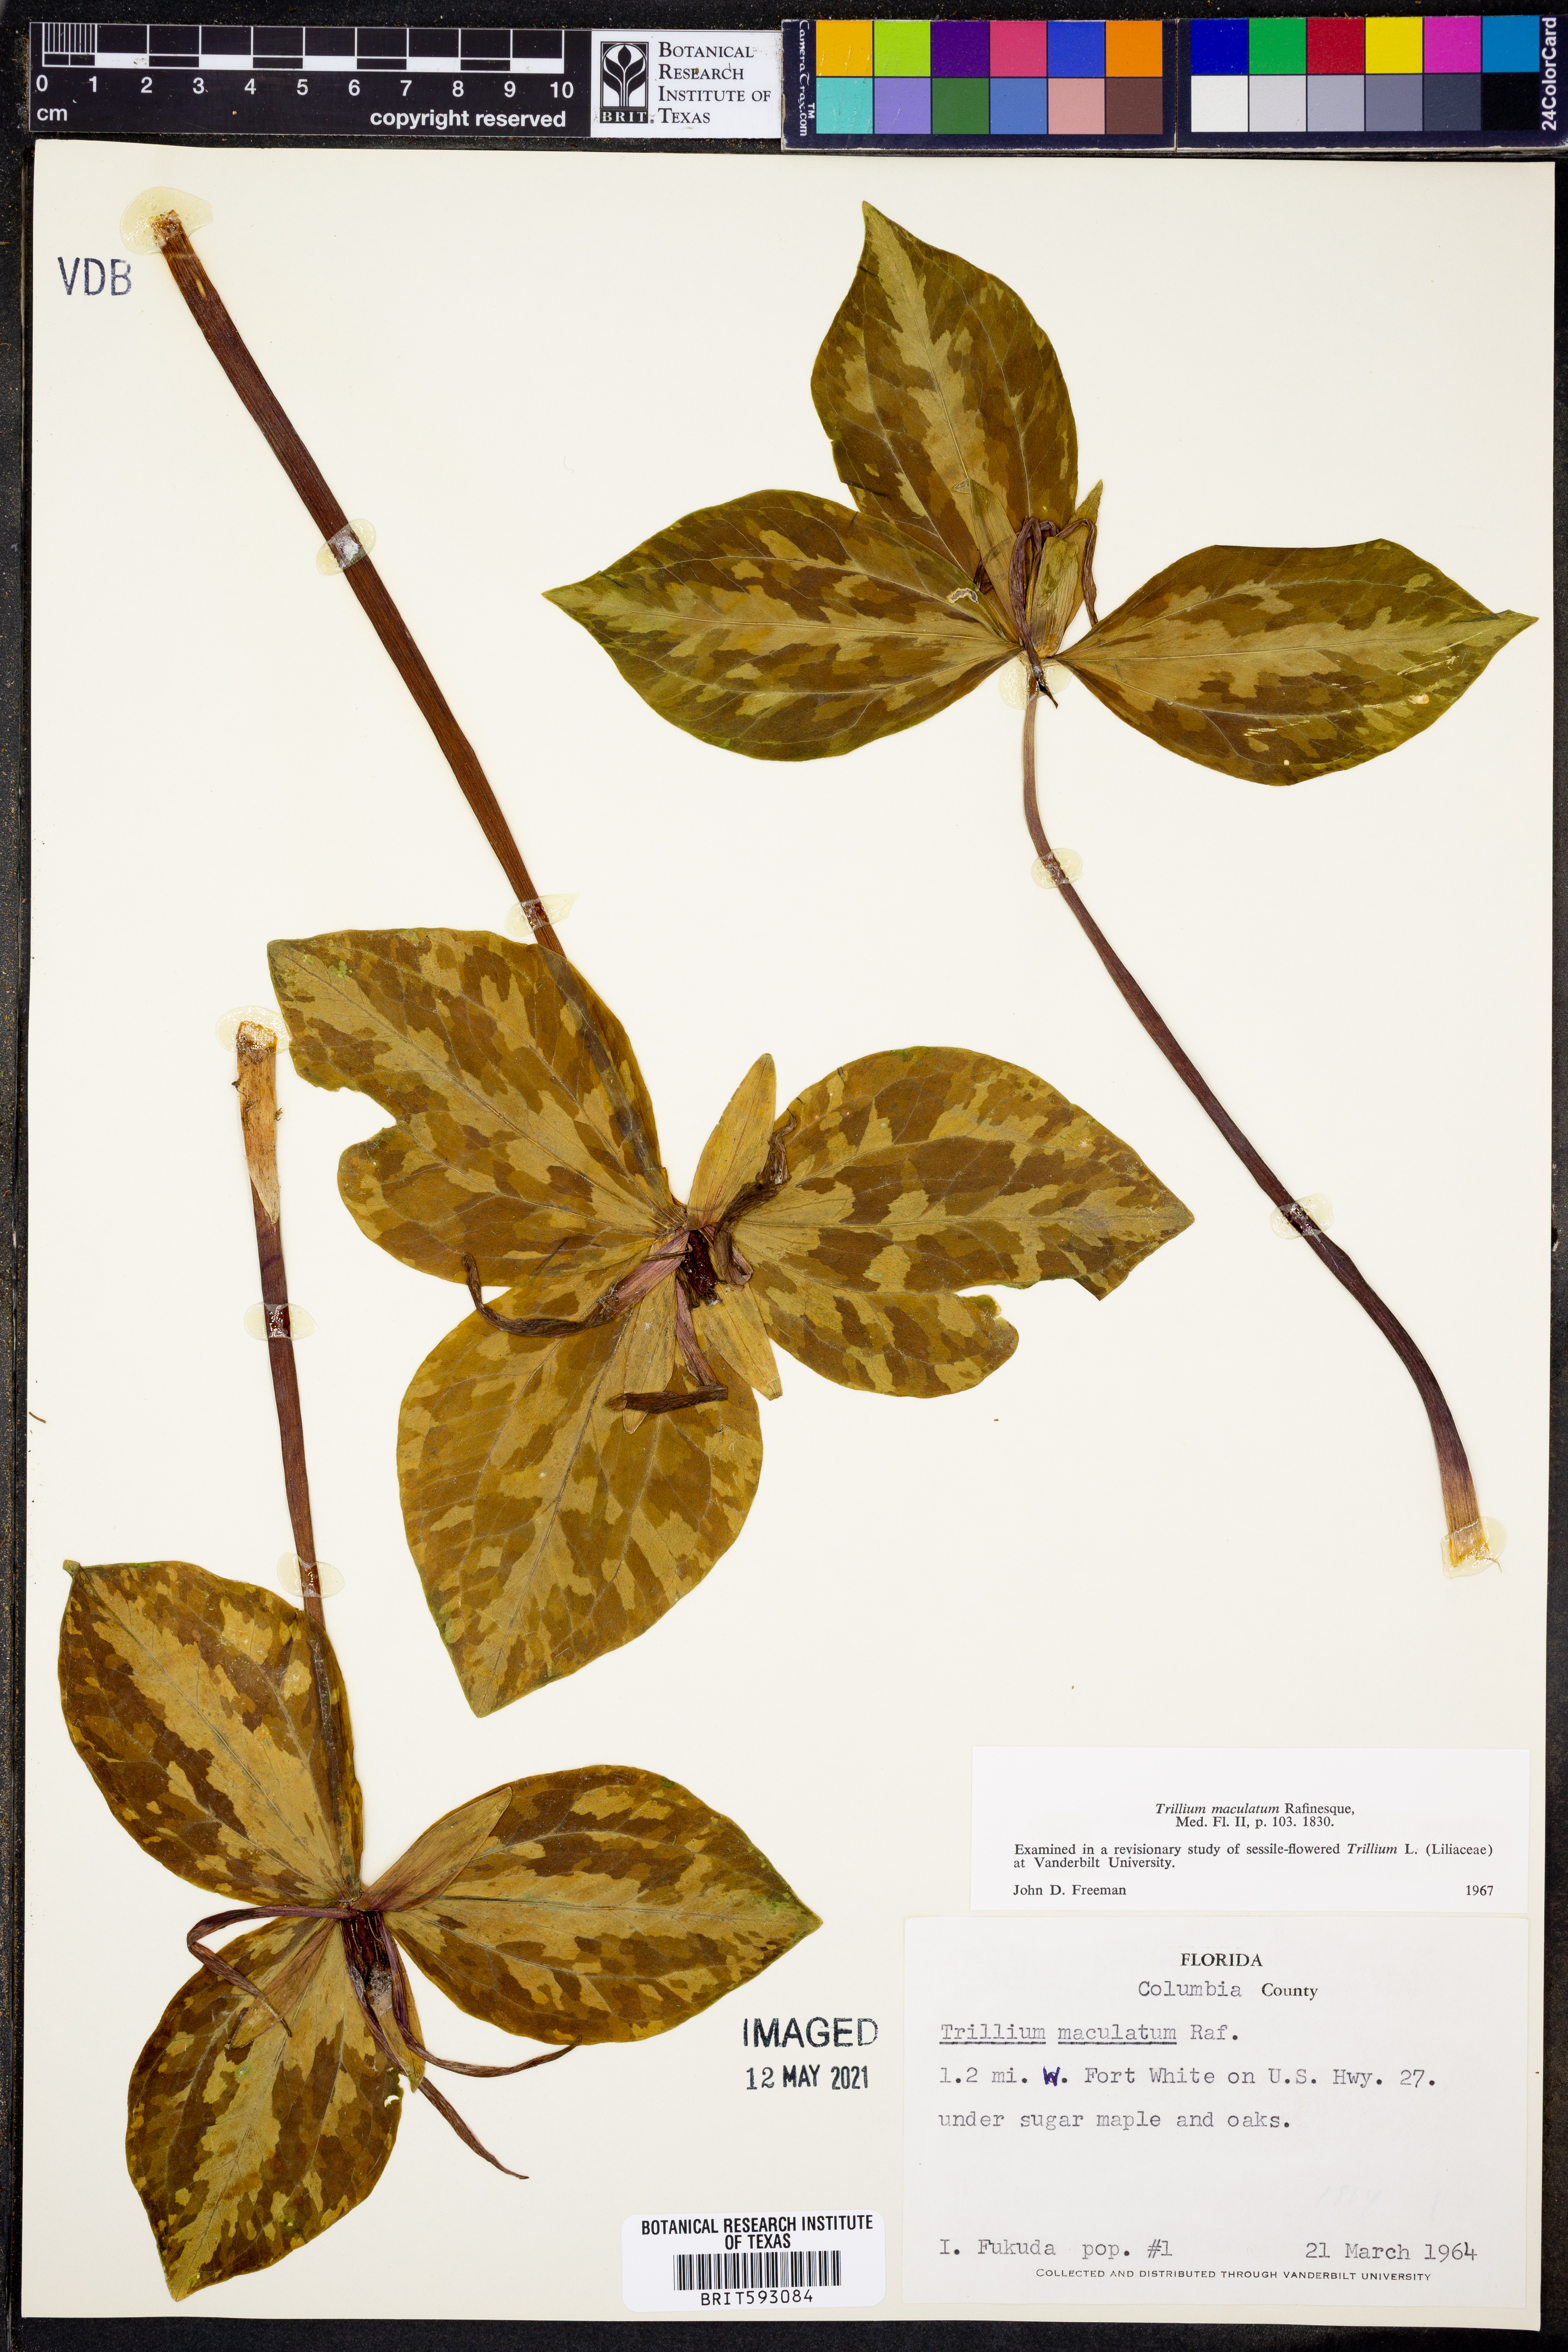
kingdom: Plantae
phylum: Tracheophyta
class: Liliopsida
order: Liliales
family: Melanthiaceae
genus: Trillium
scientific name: Trillium maculatum
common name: Mottled trillium
